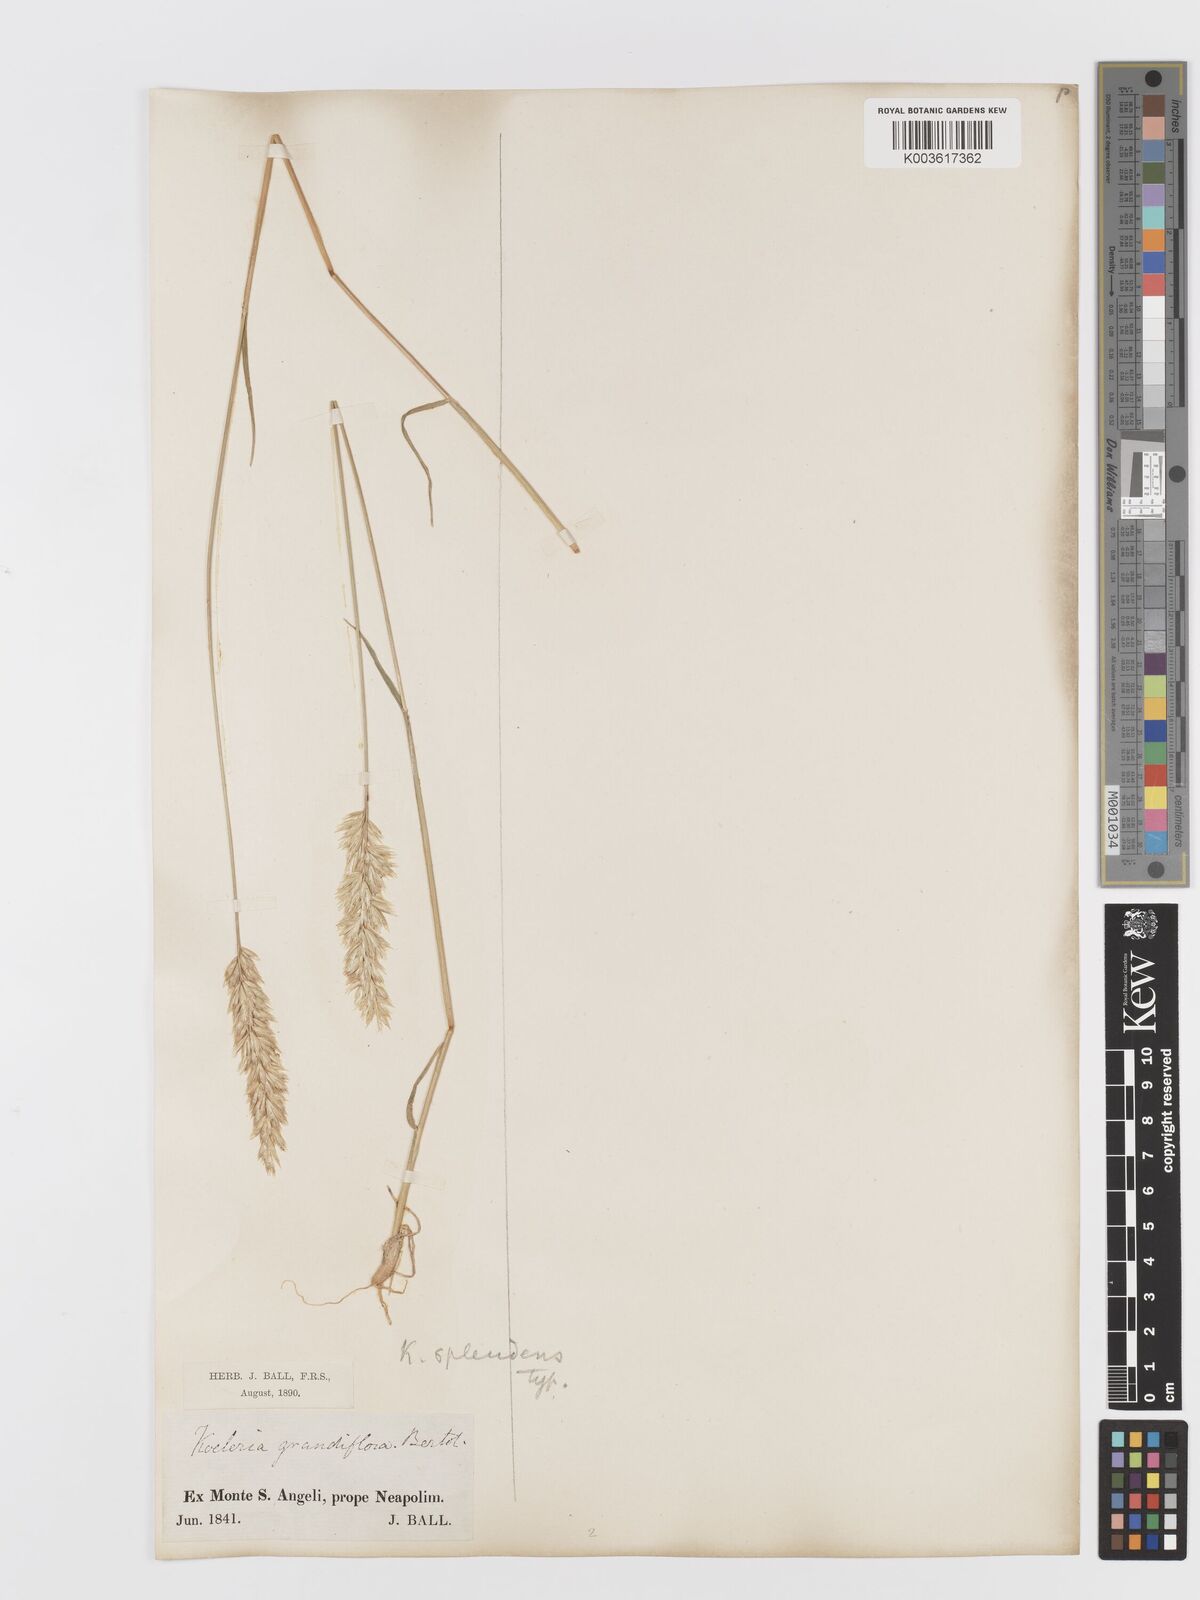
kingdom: Plantae
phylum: Tracheophyta
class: Liliopsida
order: Poales
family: Poaceae
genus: Koeleria
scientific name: Koeleria splendens
